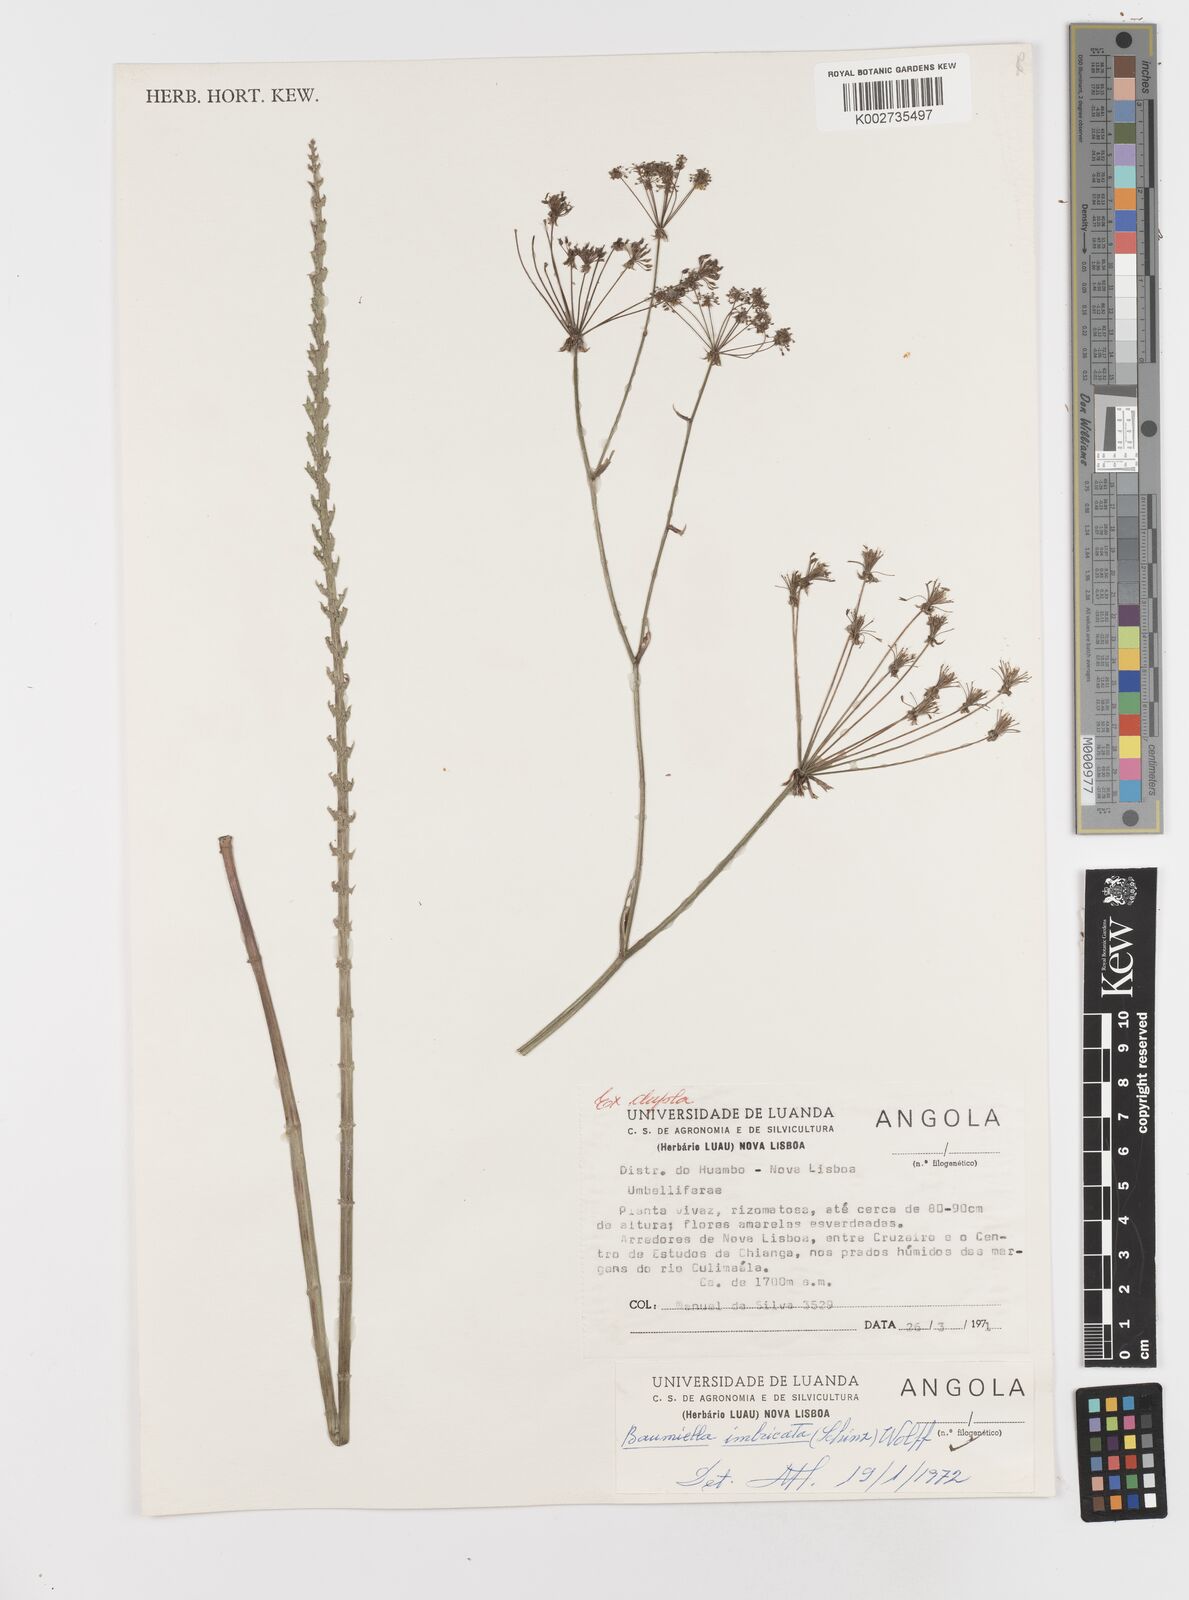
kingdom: Plantae
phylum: Tracheophyta
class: Magnoliopsida
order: Apiales
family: Apiaceae
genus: Berula
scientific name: Berula imbricata
